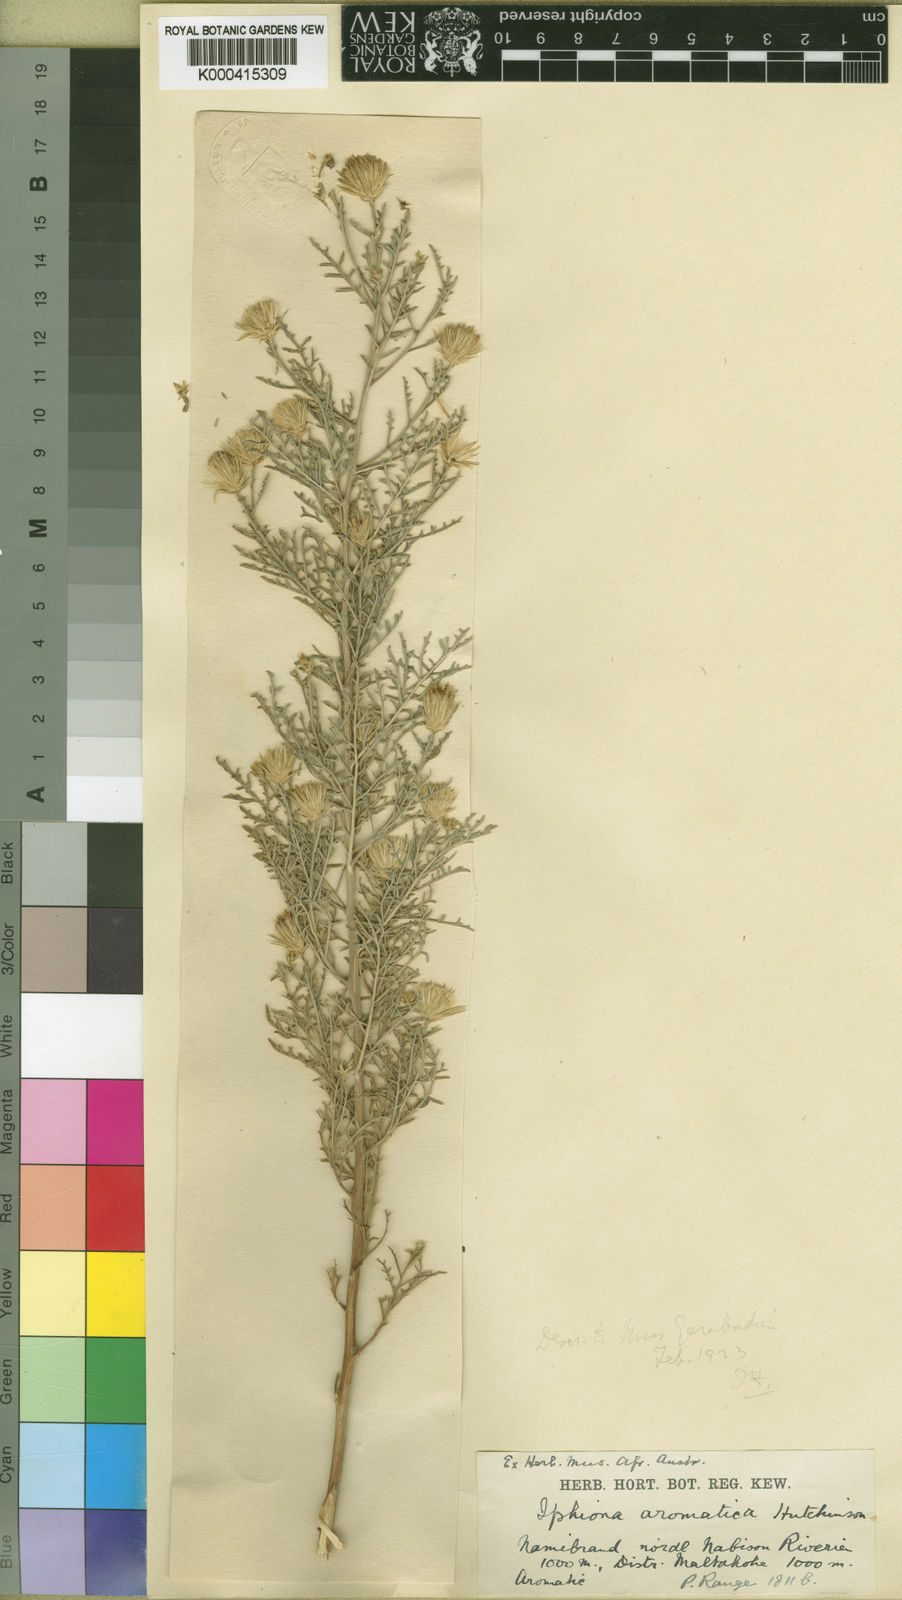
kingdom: Plantae
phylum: Tracheophyta
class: Magnoliopsida
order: Asterales
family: Asteraceae
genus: Antiphiona
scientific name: Antiphiona pinnatisecta
